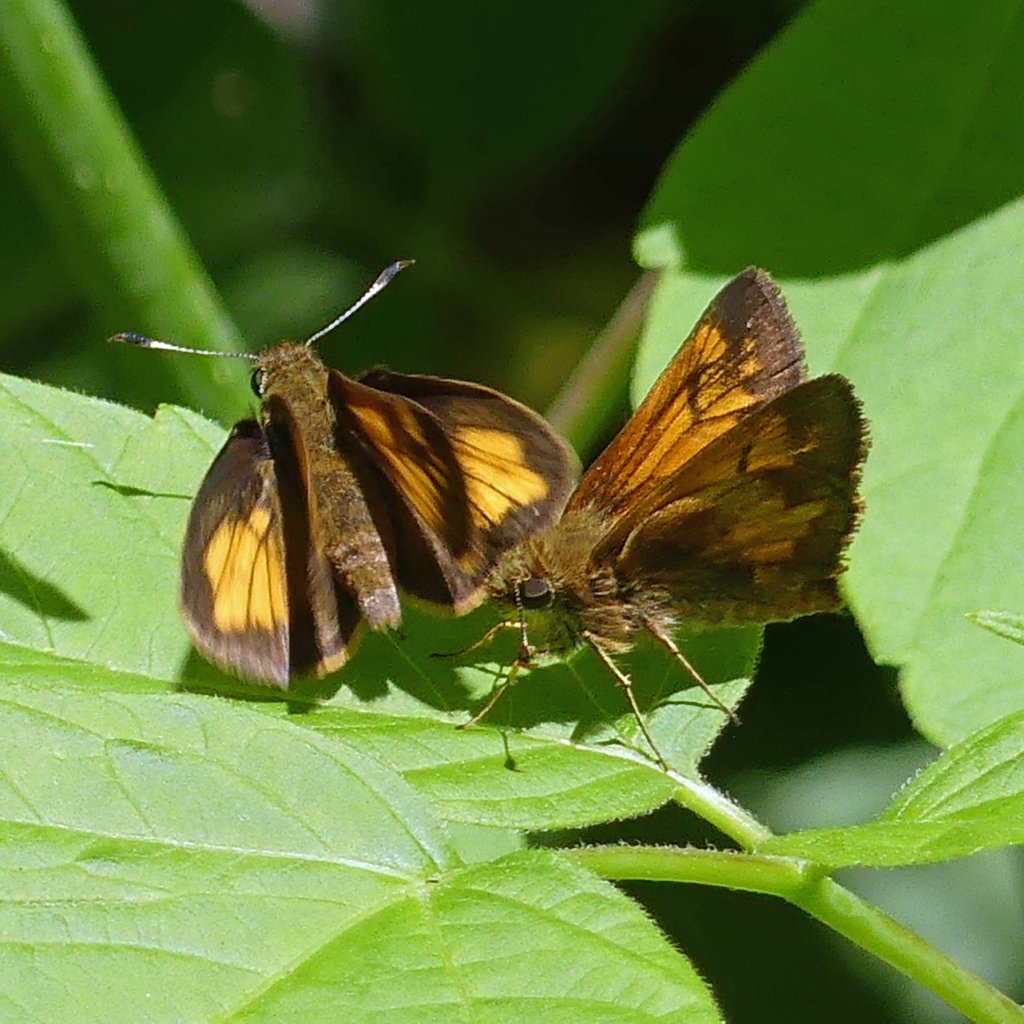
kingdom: Animalia
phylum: Arthropoda
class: Insecta
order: Lepidoptera
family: Hesperiidae
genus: Lon
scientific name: Lon hobomok
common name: Hobomok Skipper
